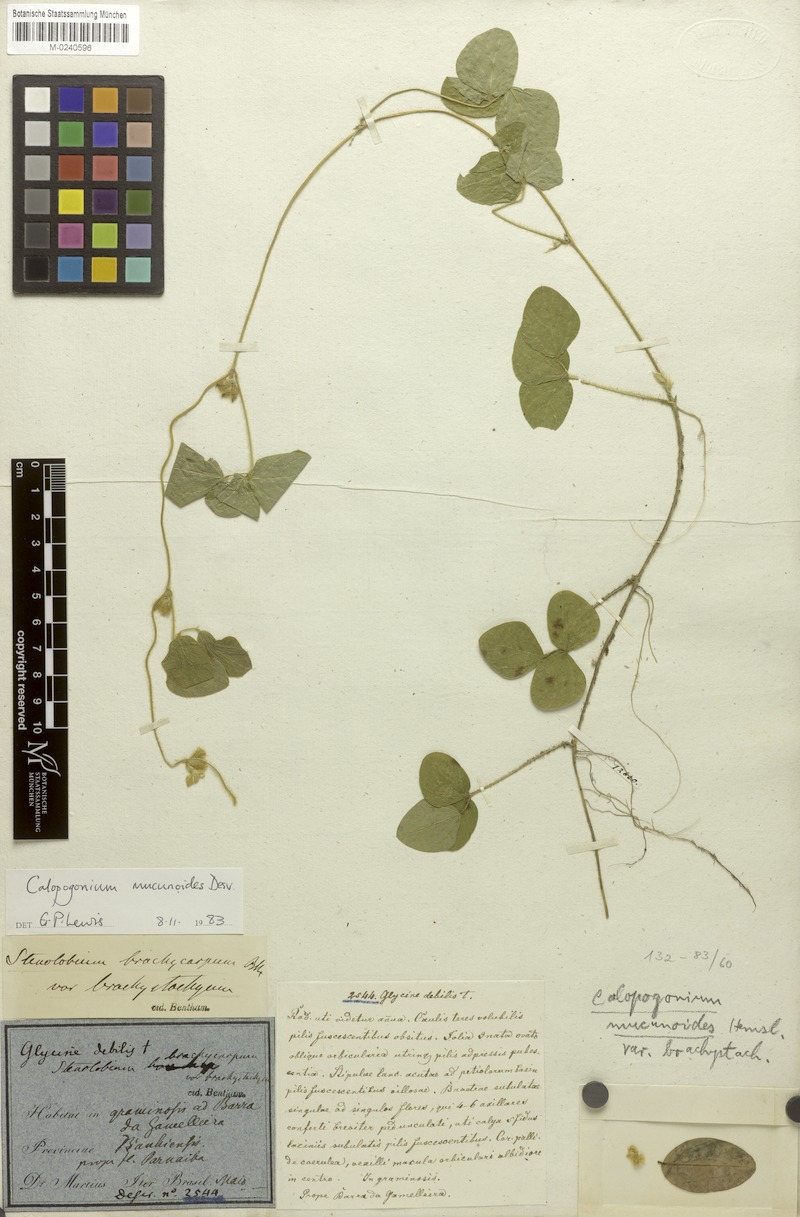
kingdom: Plantae
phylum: Tracheophyta
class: Magnoliopsida
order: Fabales
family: Fabaceae
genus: Calopogonium
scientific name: Calopogonium mucunoides
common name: Calopo
